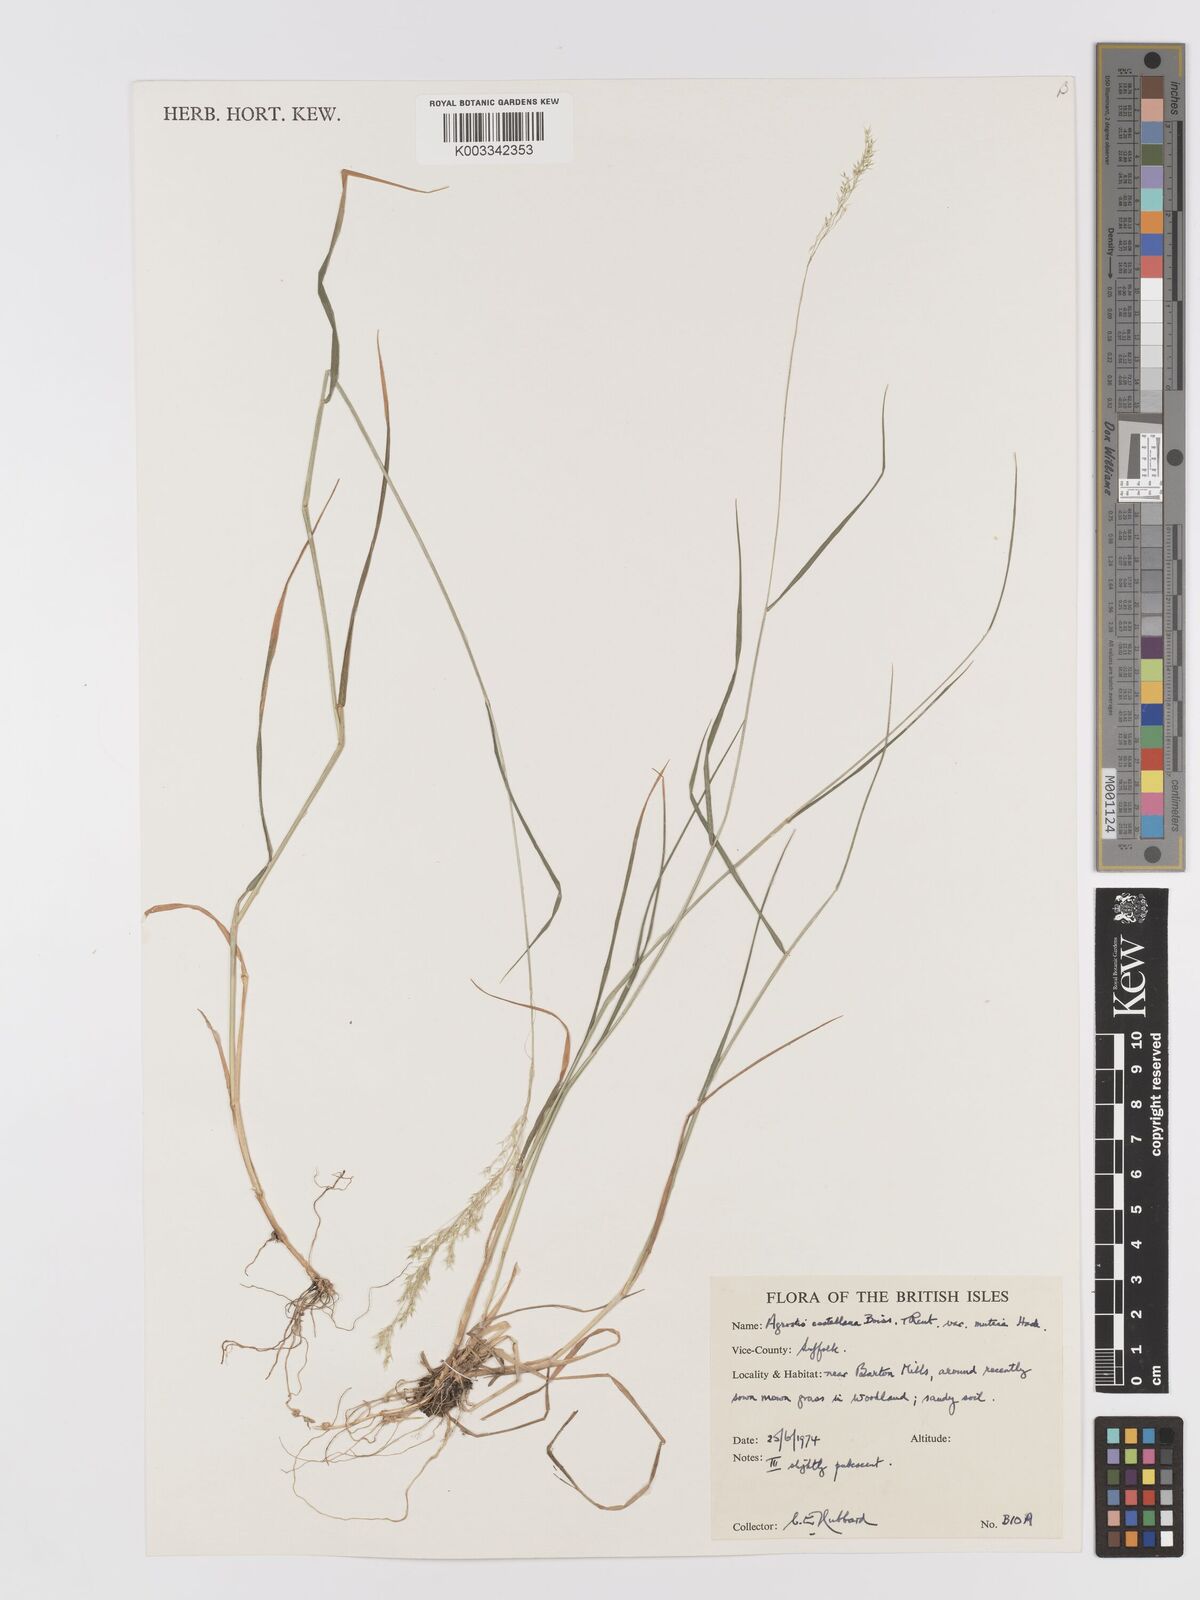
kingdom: Plantae
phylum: Tracheophyta
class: Liliopsida
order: Poales
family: Poaceae
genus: Agrostis
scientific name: Agrostis castellana
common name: Highland bent
